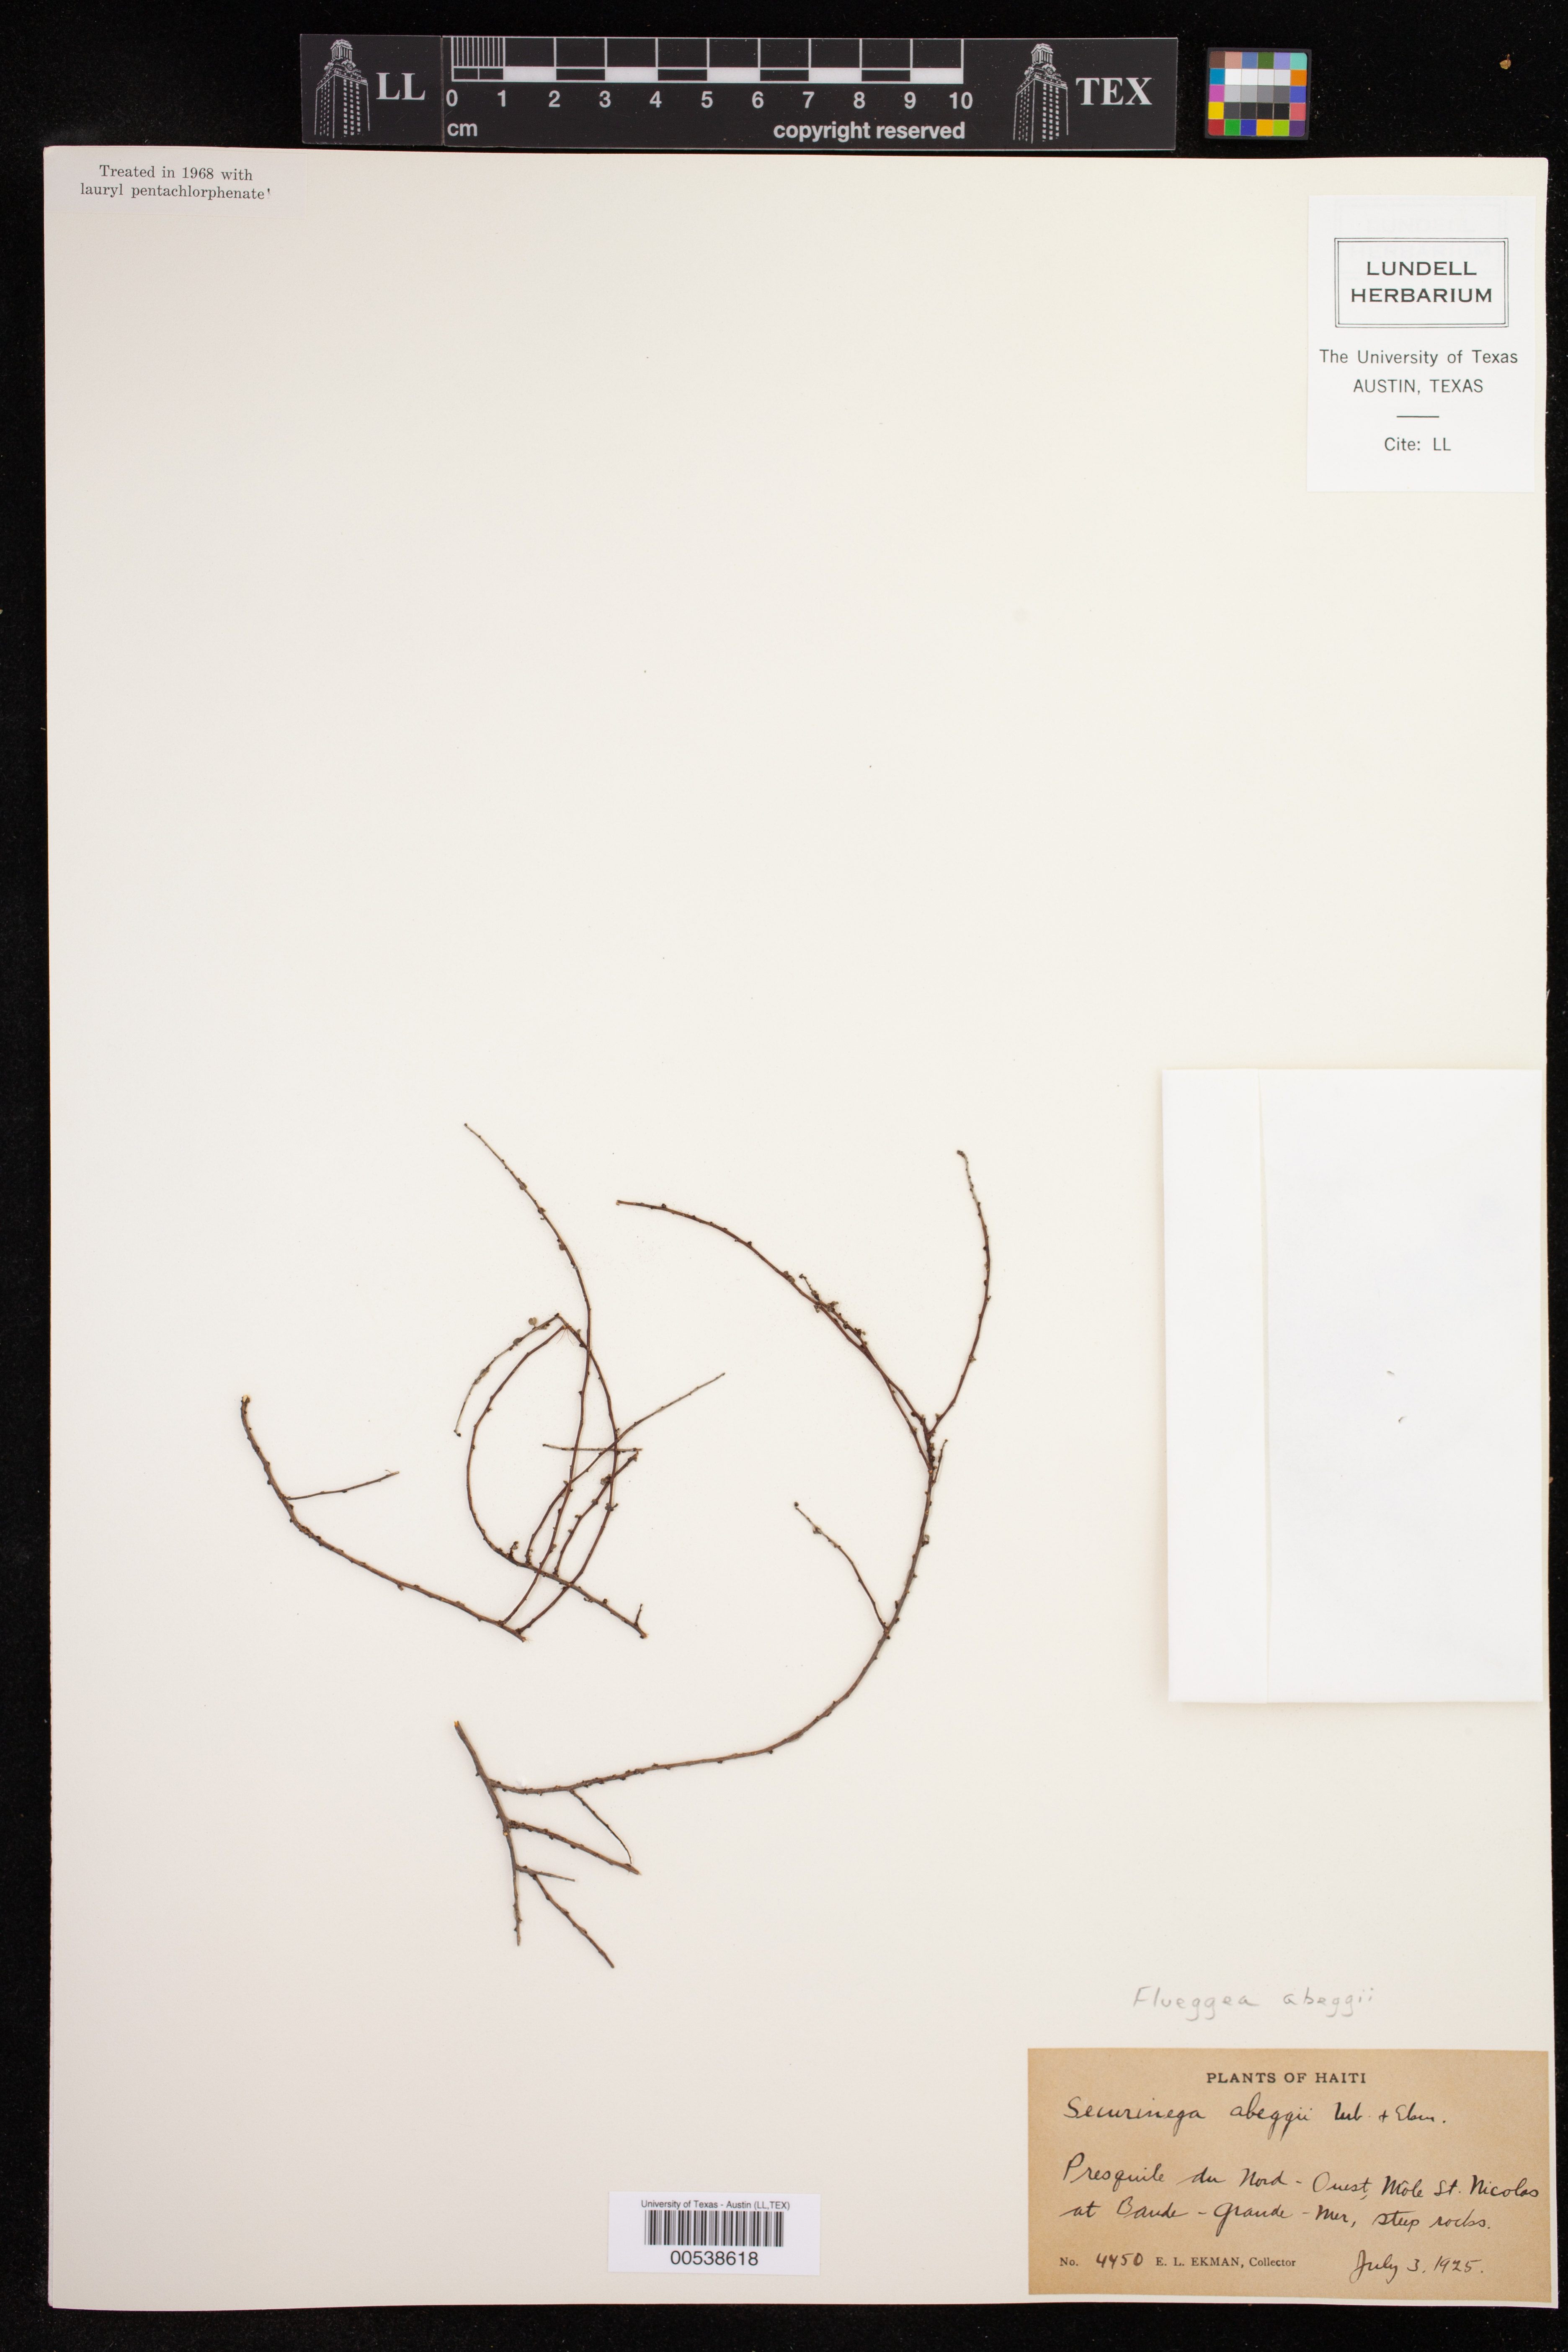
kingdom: Plantae
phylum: Tracheophyta
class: Magnoliopsida
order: Malpighiales
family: Phyllanthaceae
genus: Andrachne
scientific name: Andrachne brittonii
